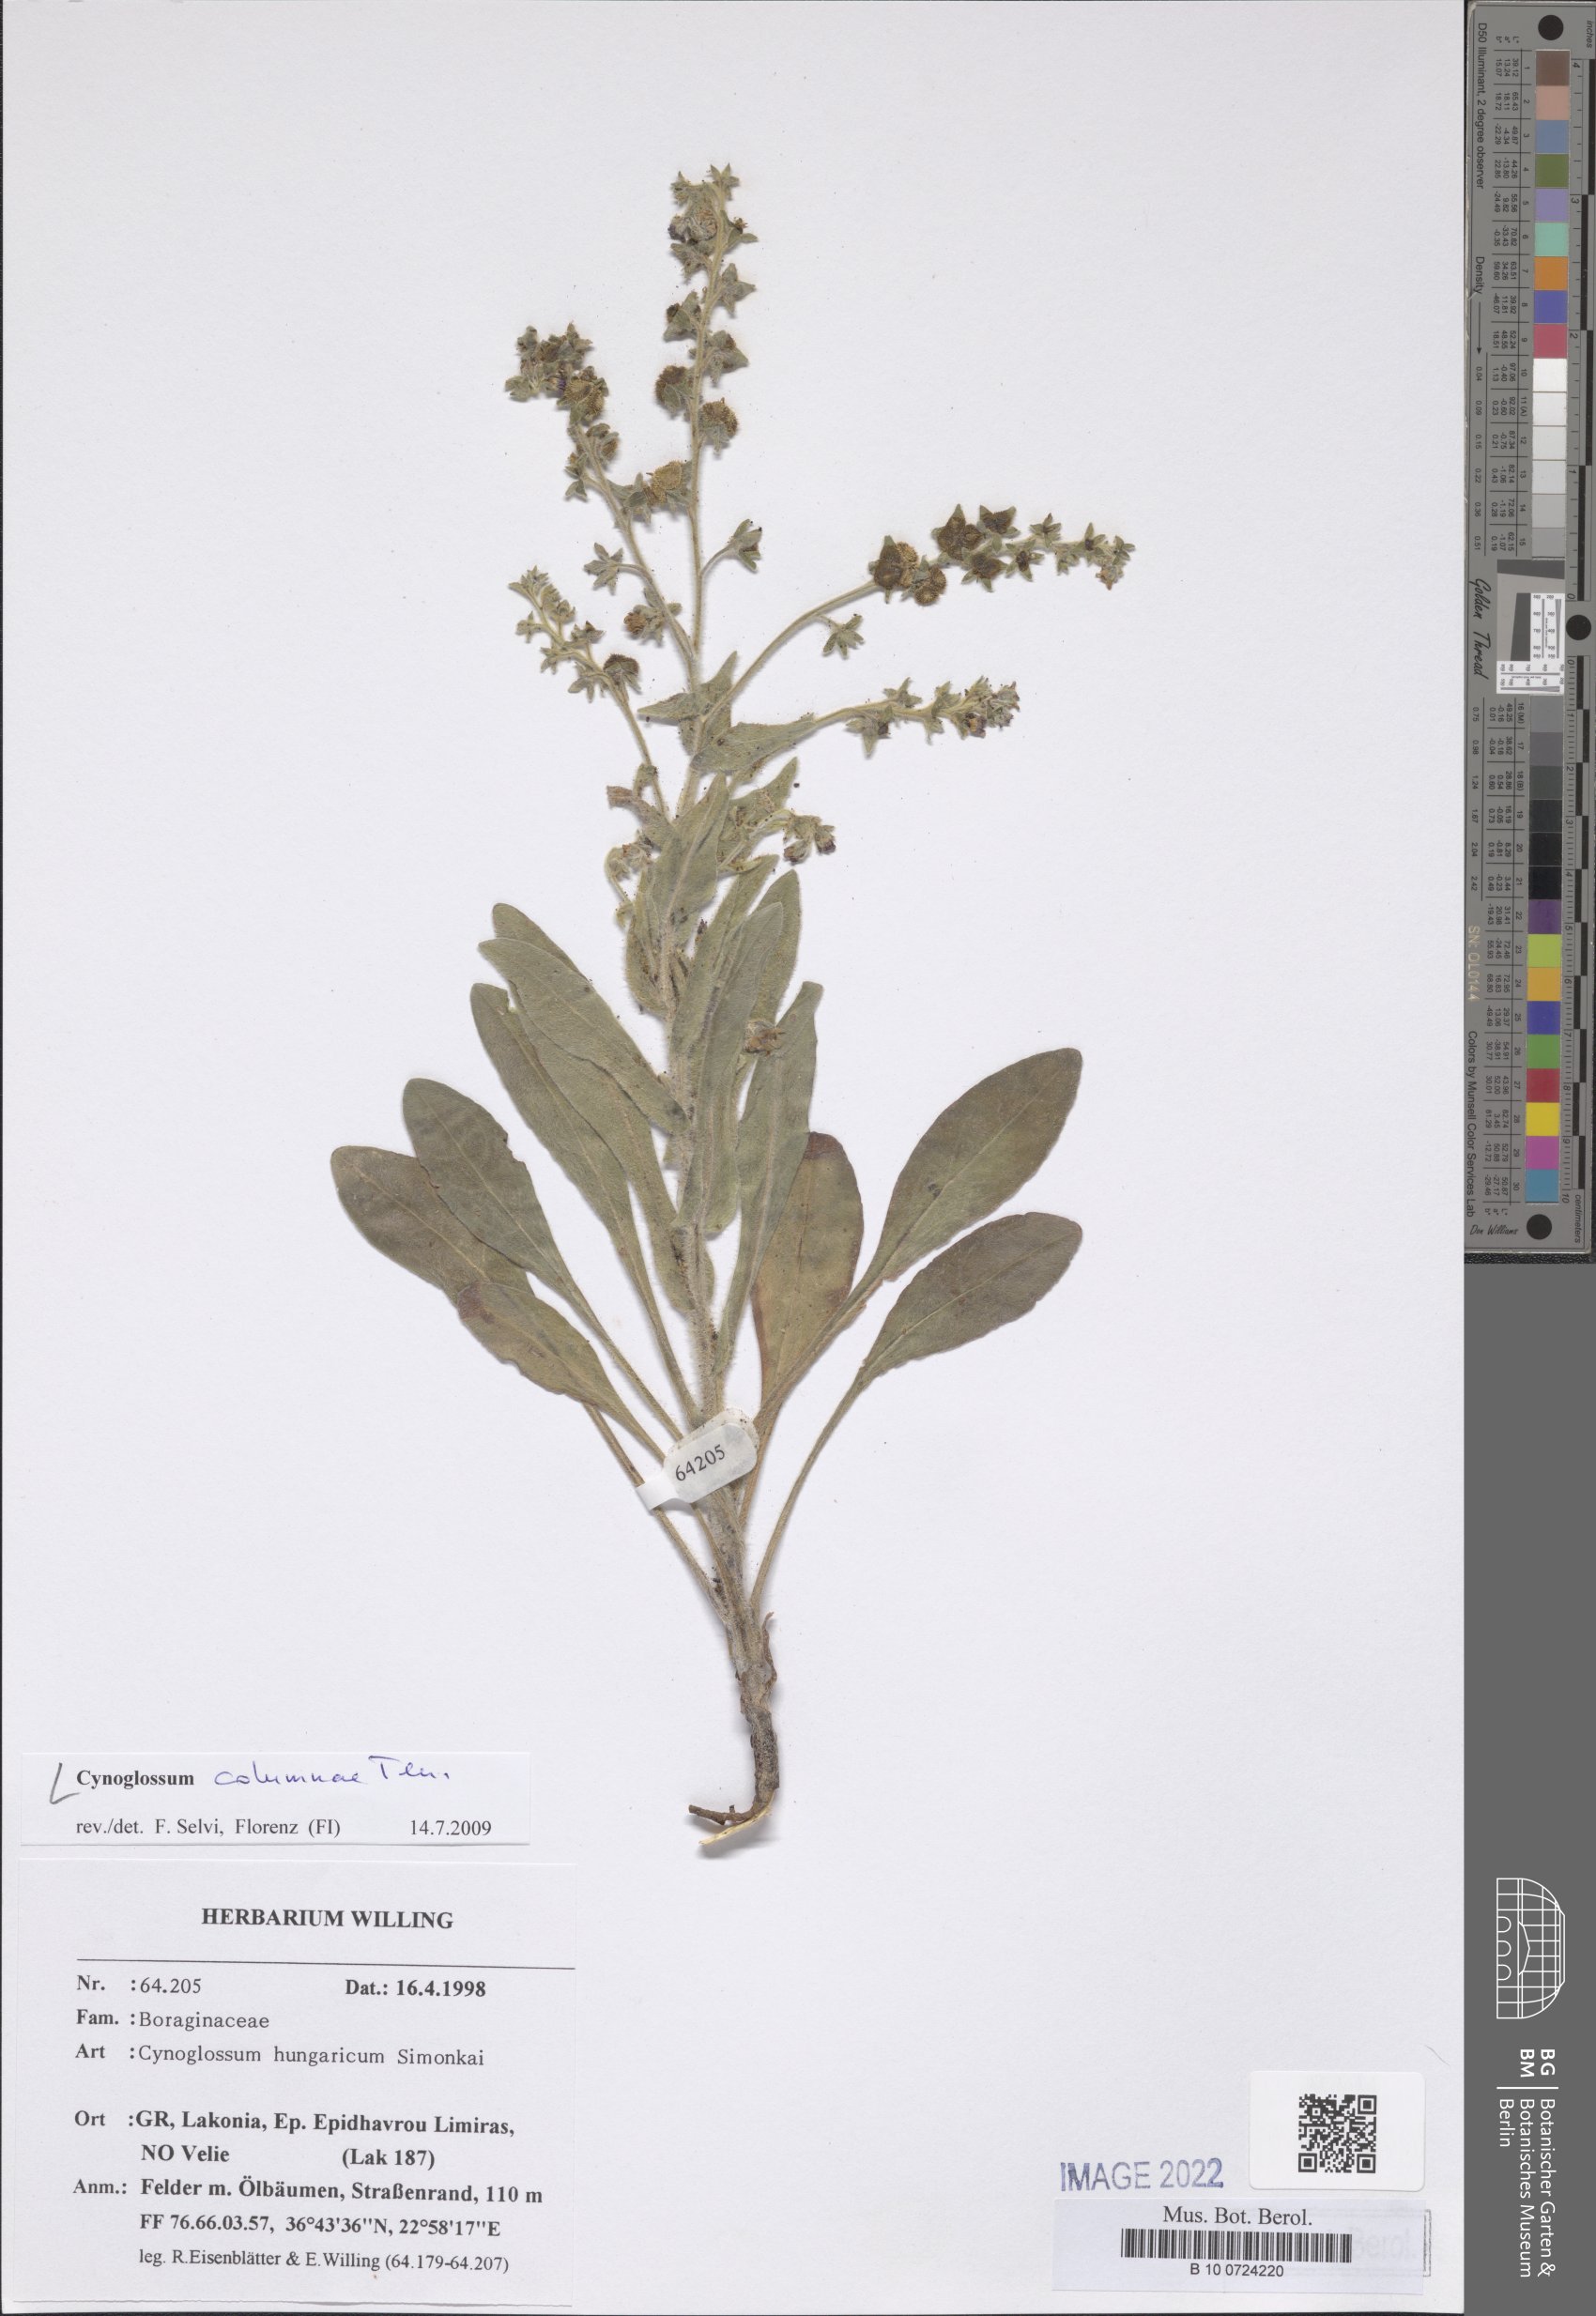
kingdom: Plantae
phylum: Tracheophyta
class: Magnoliopsida
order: Boraginales
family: Boraginaceae
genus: Rindera
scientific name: Rindera columnae
